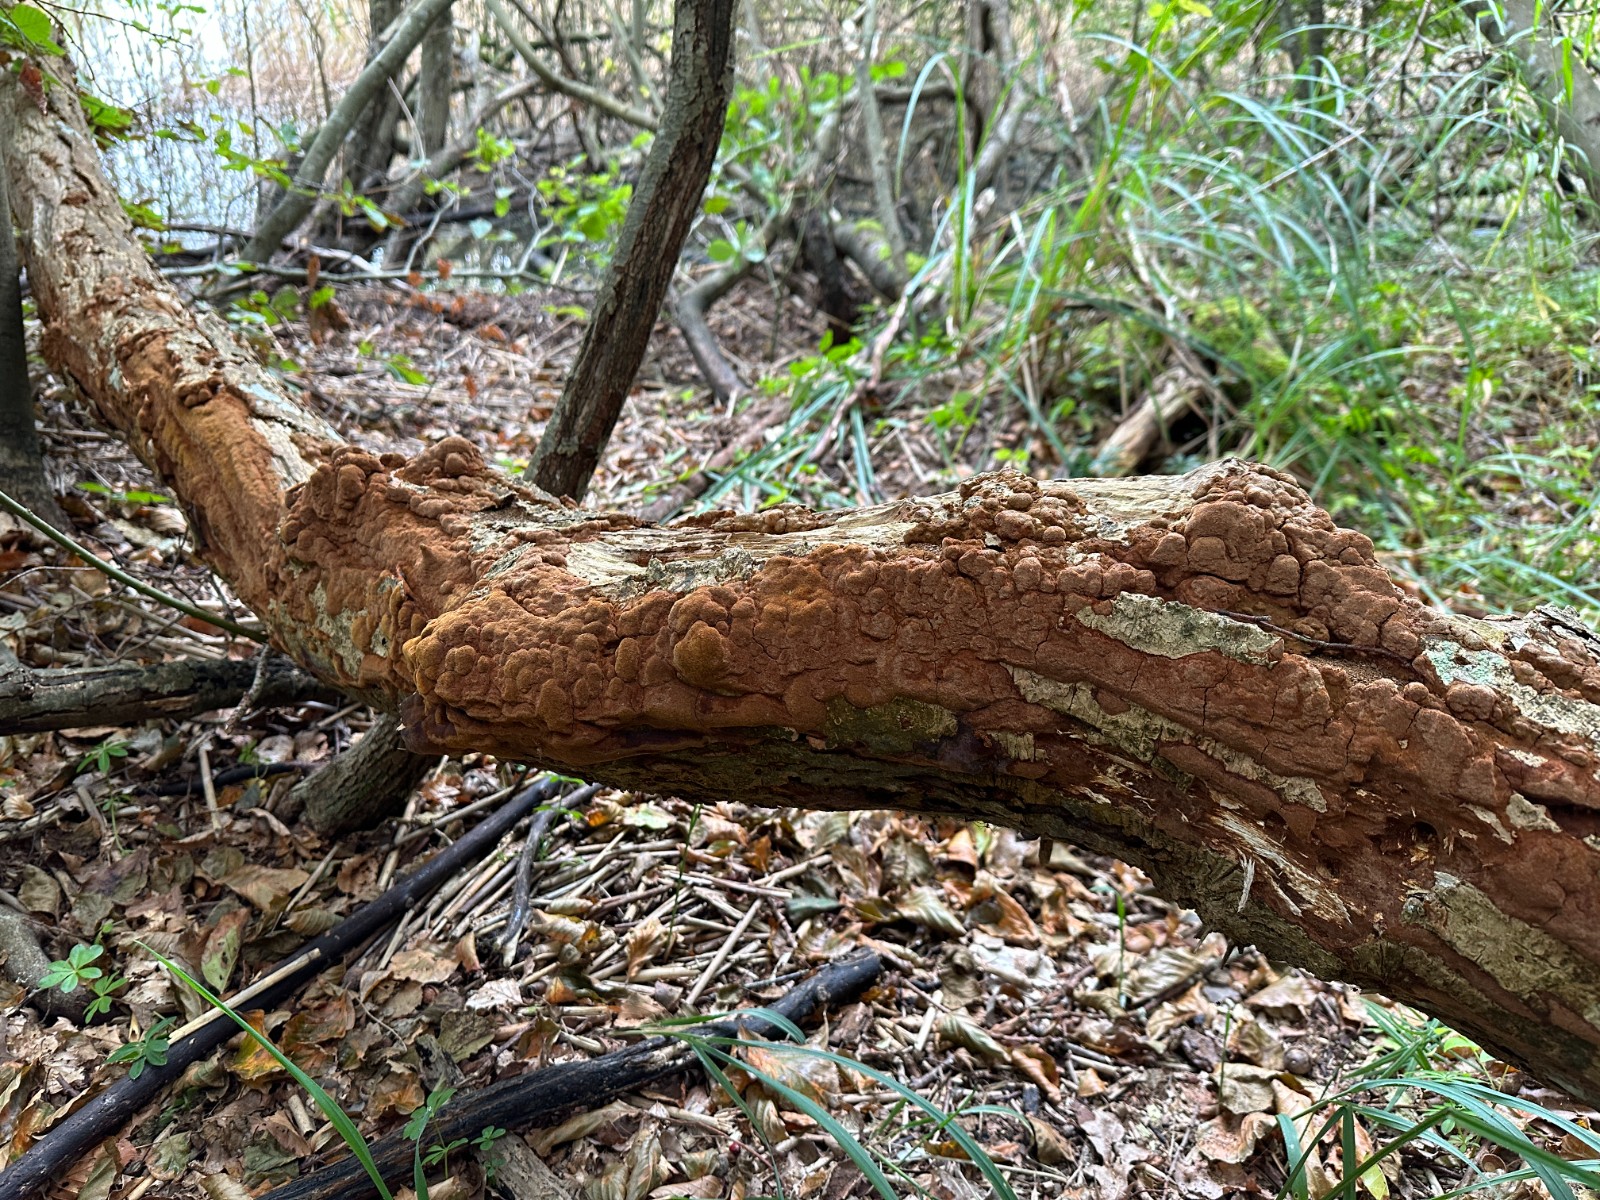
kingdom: Fungi
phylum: Basidiomycota
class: Agaricomycetes
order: Hymenochaetales
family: Hymenochaetaceae
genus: Fuscoporia
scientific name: Fuscoporia ferrea
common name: skorpe-ildporesvamp
